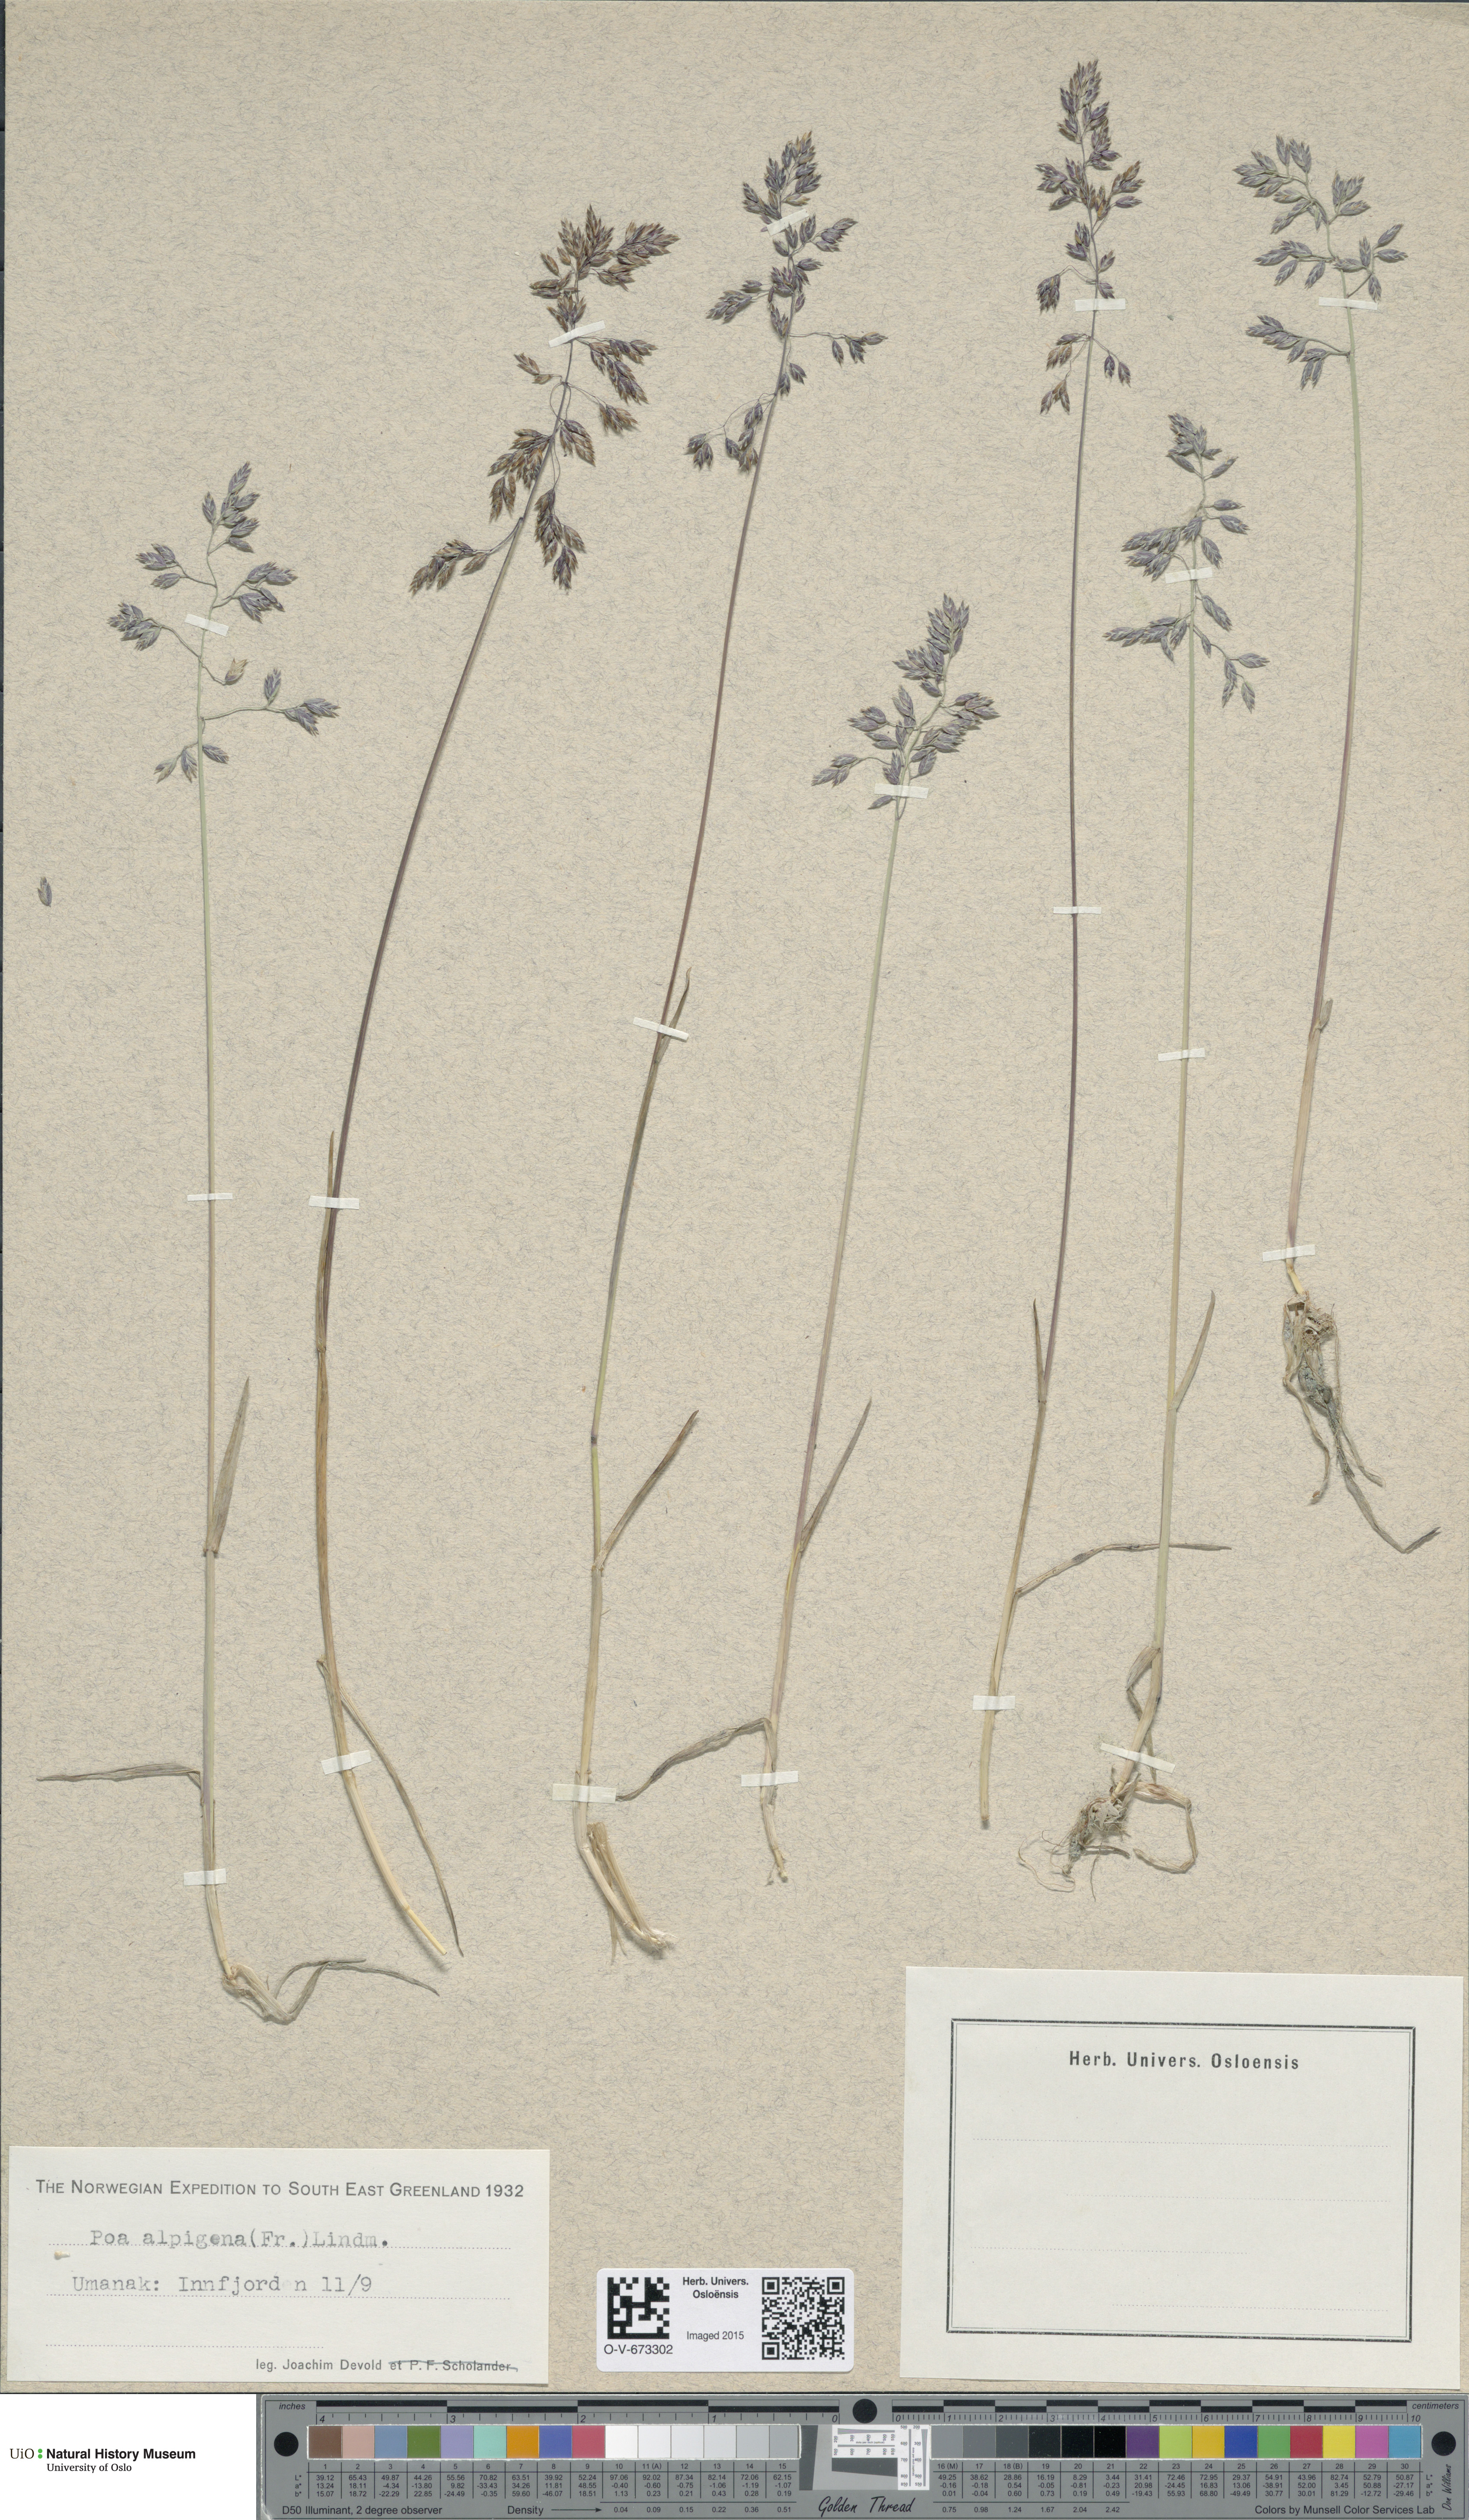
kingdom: Plantae
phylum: Tracheophyta
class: Liliopsida
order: Poales
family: Poaceae
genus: Poa
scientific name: Poa alpigena
